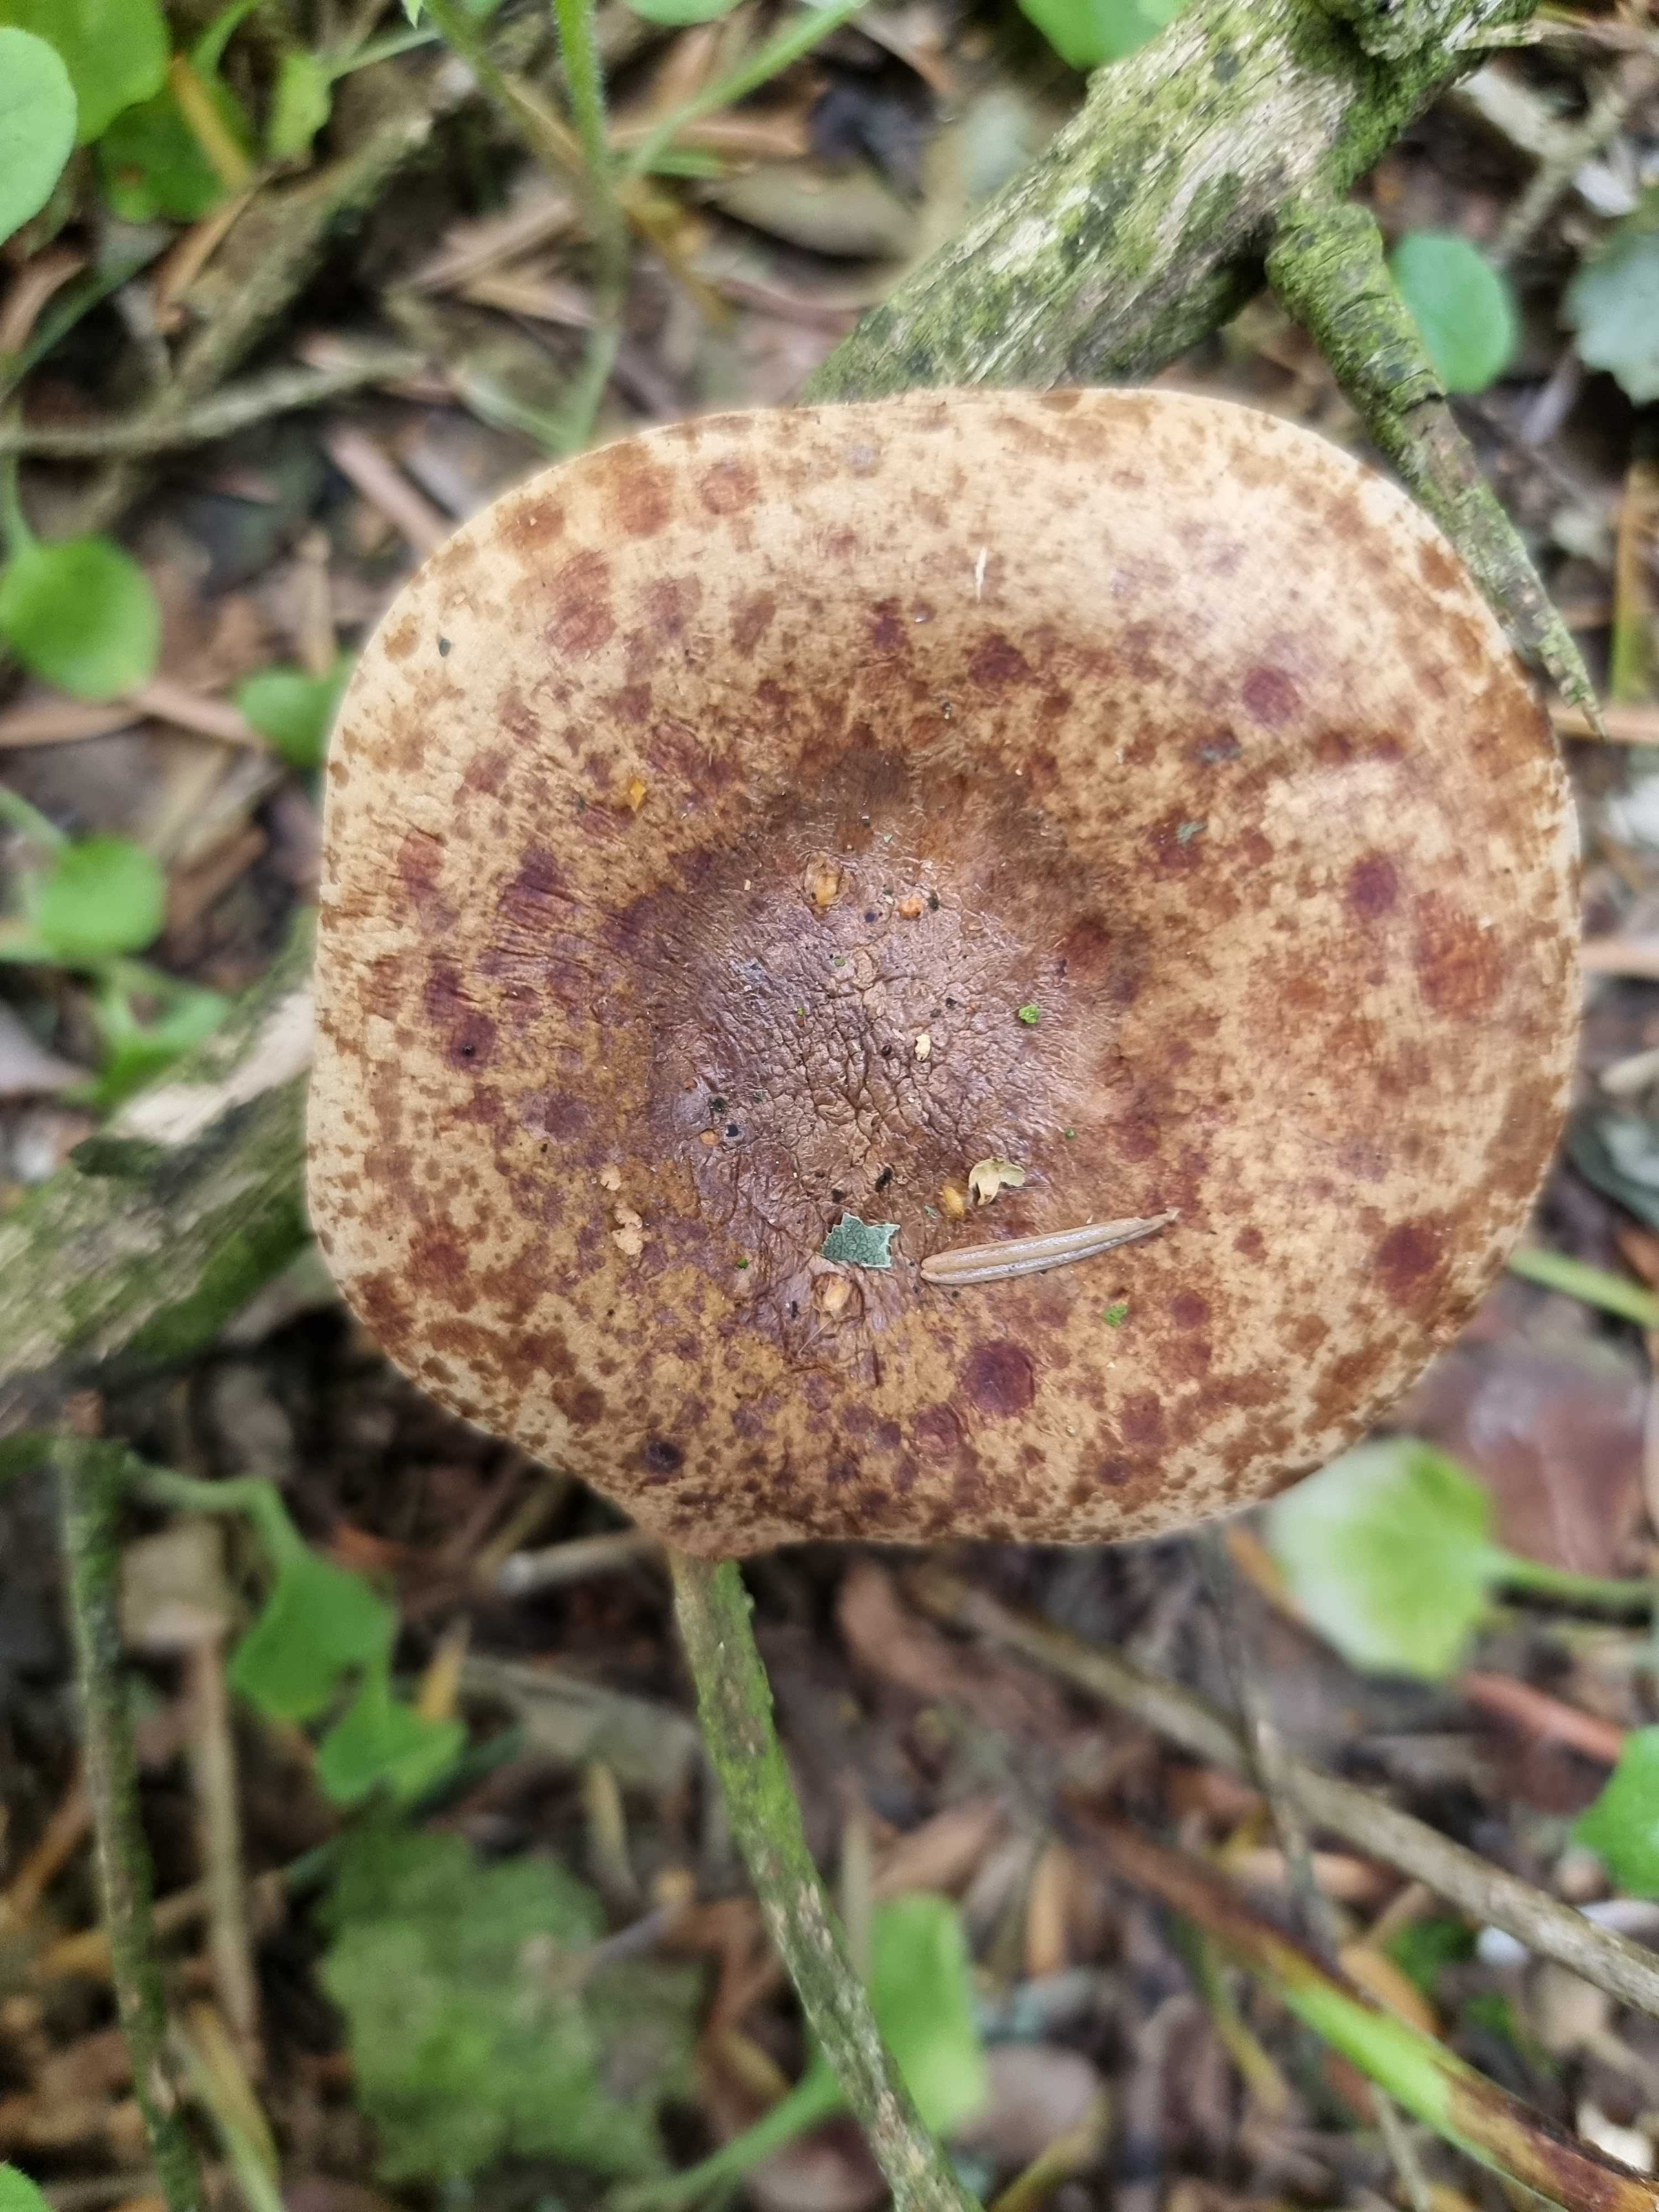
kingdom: Fungi
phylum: Basidiomycota
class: Agaricomycetes
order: Boletales
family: Paxillaceae
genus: Paxillus
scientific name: Paxillus
